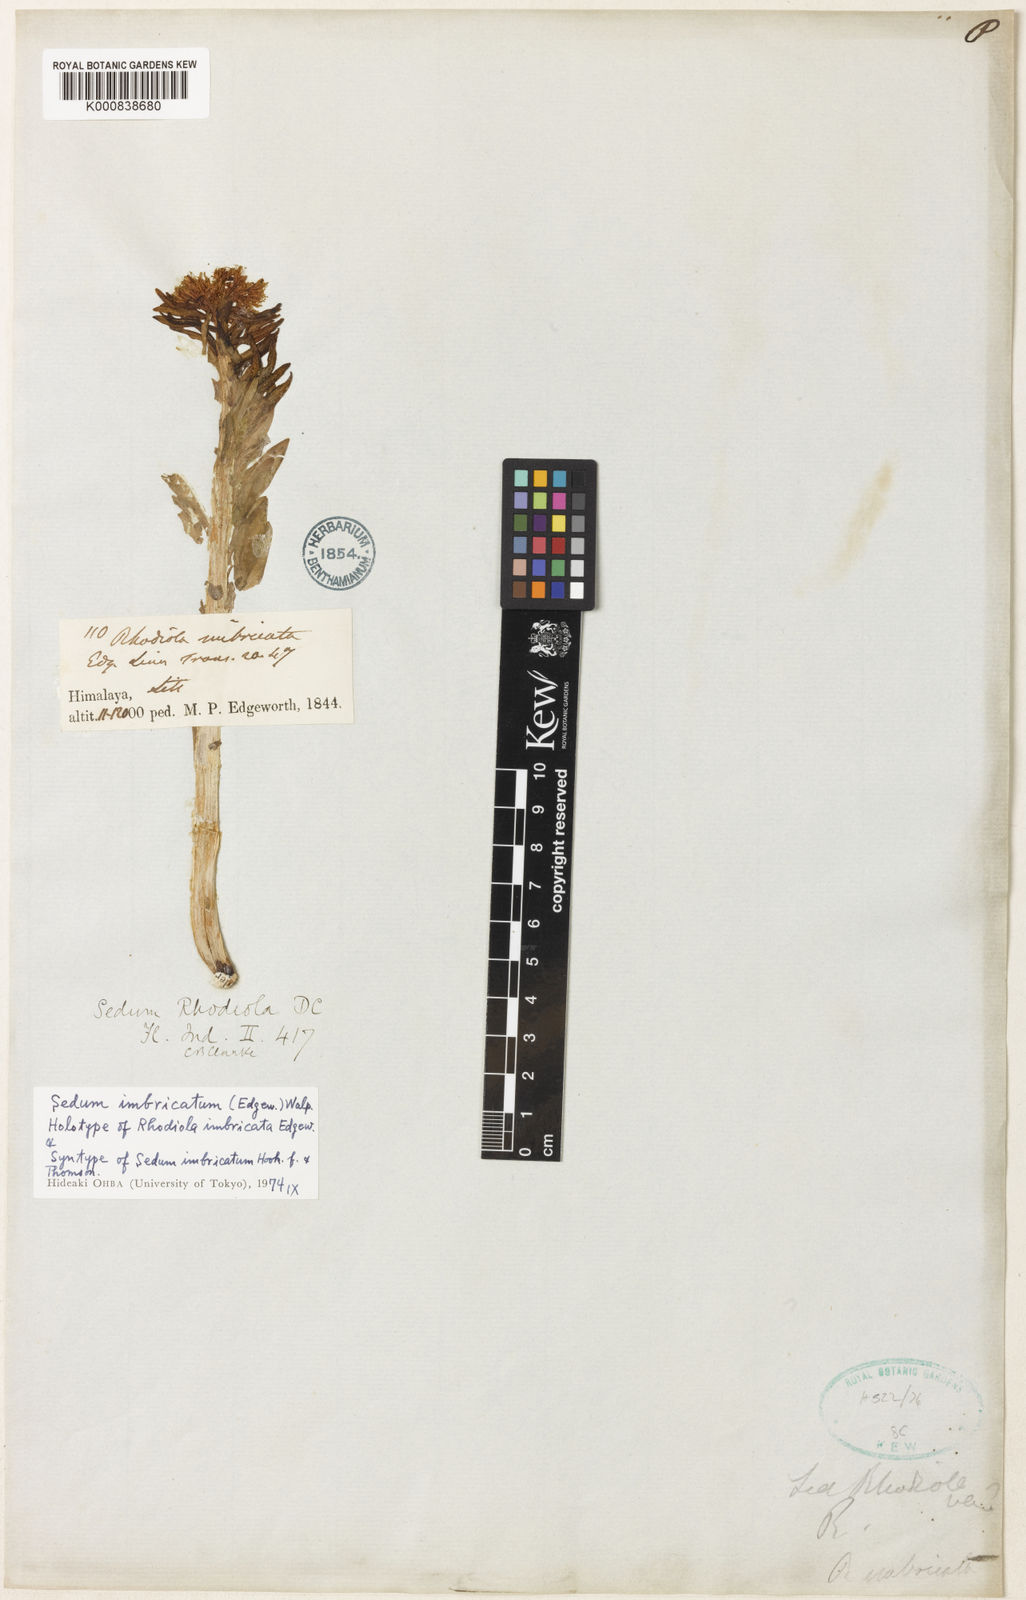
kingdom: Plantae
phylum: Tracheophyta
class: Magnoliopsida
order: Saxifragales
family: Crassulaceae
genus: Rhodiola
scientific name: Rhodiola imbricata
